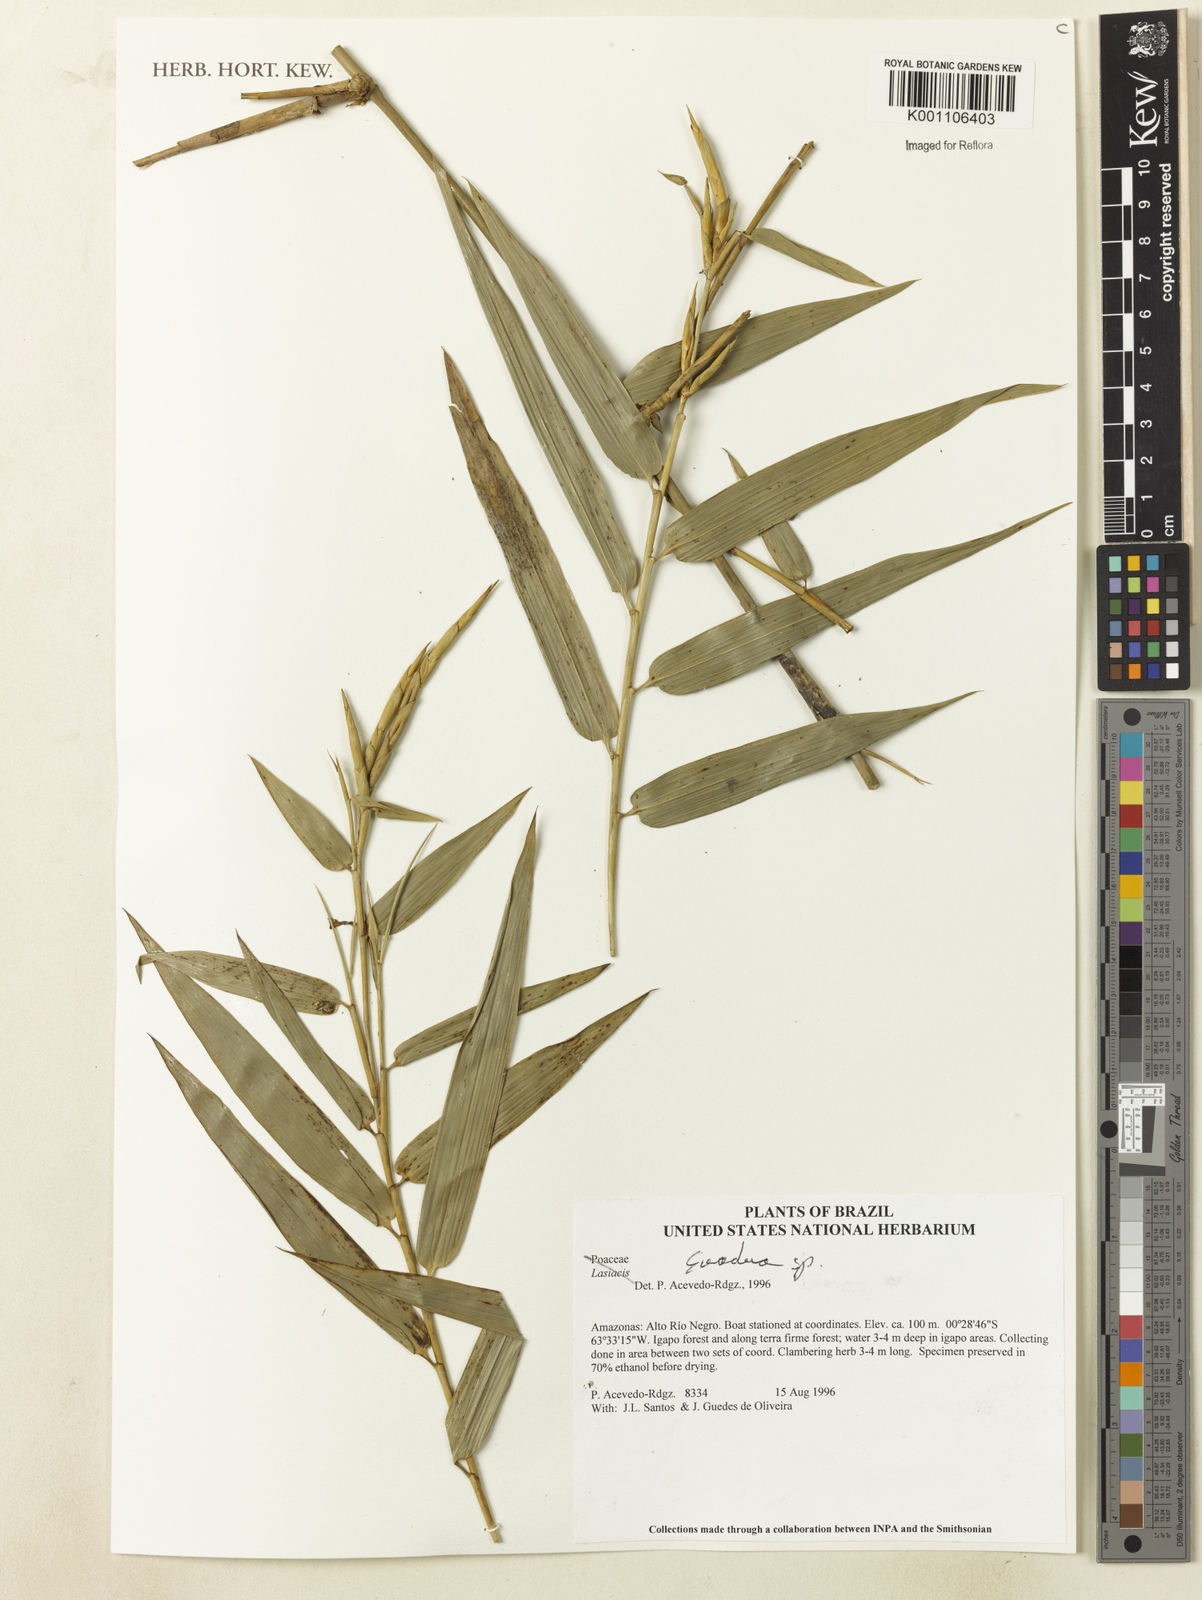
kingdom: Plantae
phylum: Tracheophyta
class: Liliopsida
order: Poales
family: Poaceae
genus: Guadua
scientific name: Guadua ciliata
